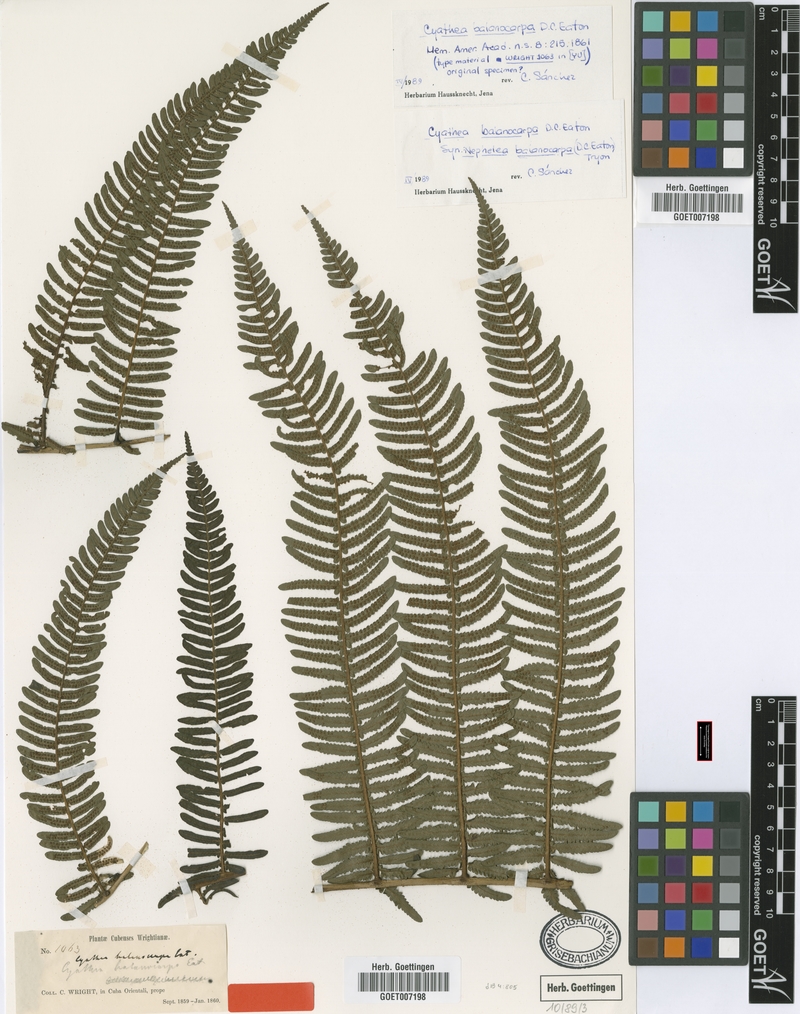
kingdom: Plantae
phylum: Tracheophyta
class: Polypodiopsida
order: Cyatheales
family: Cyatheaceae
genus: Alsophila
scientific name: Alsophila balanocarpa
